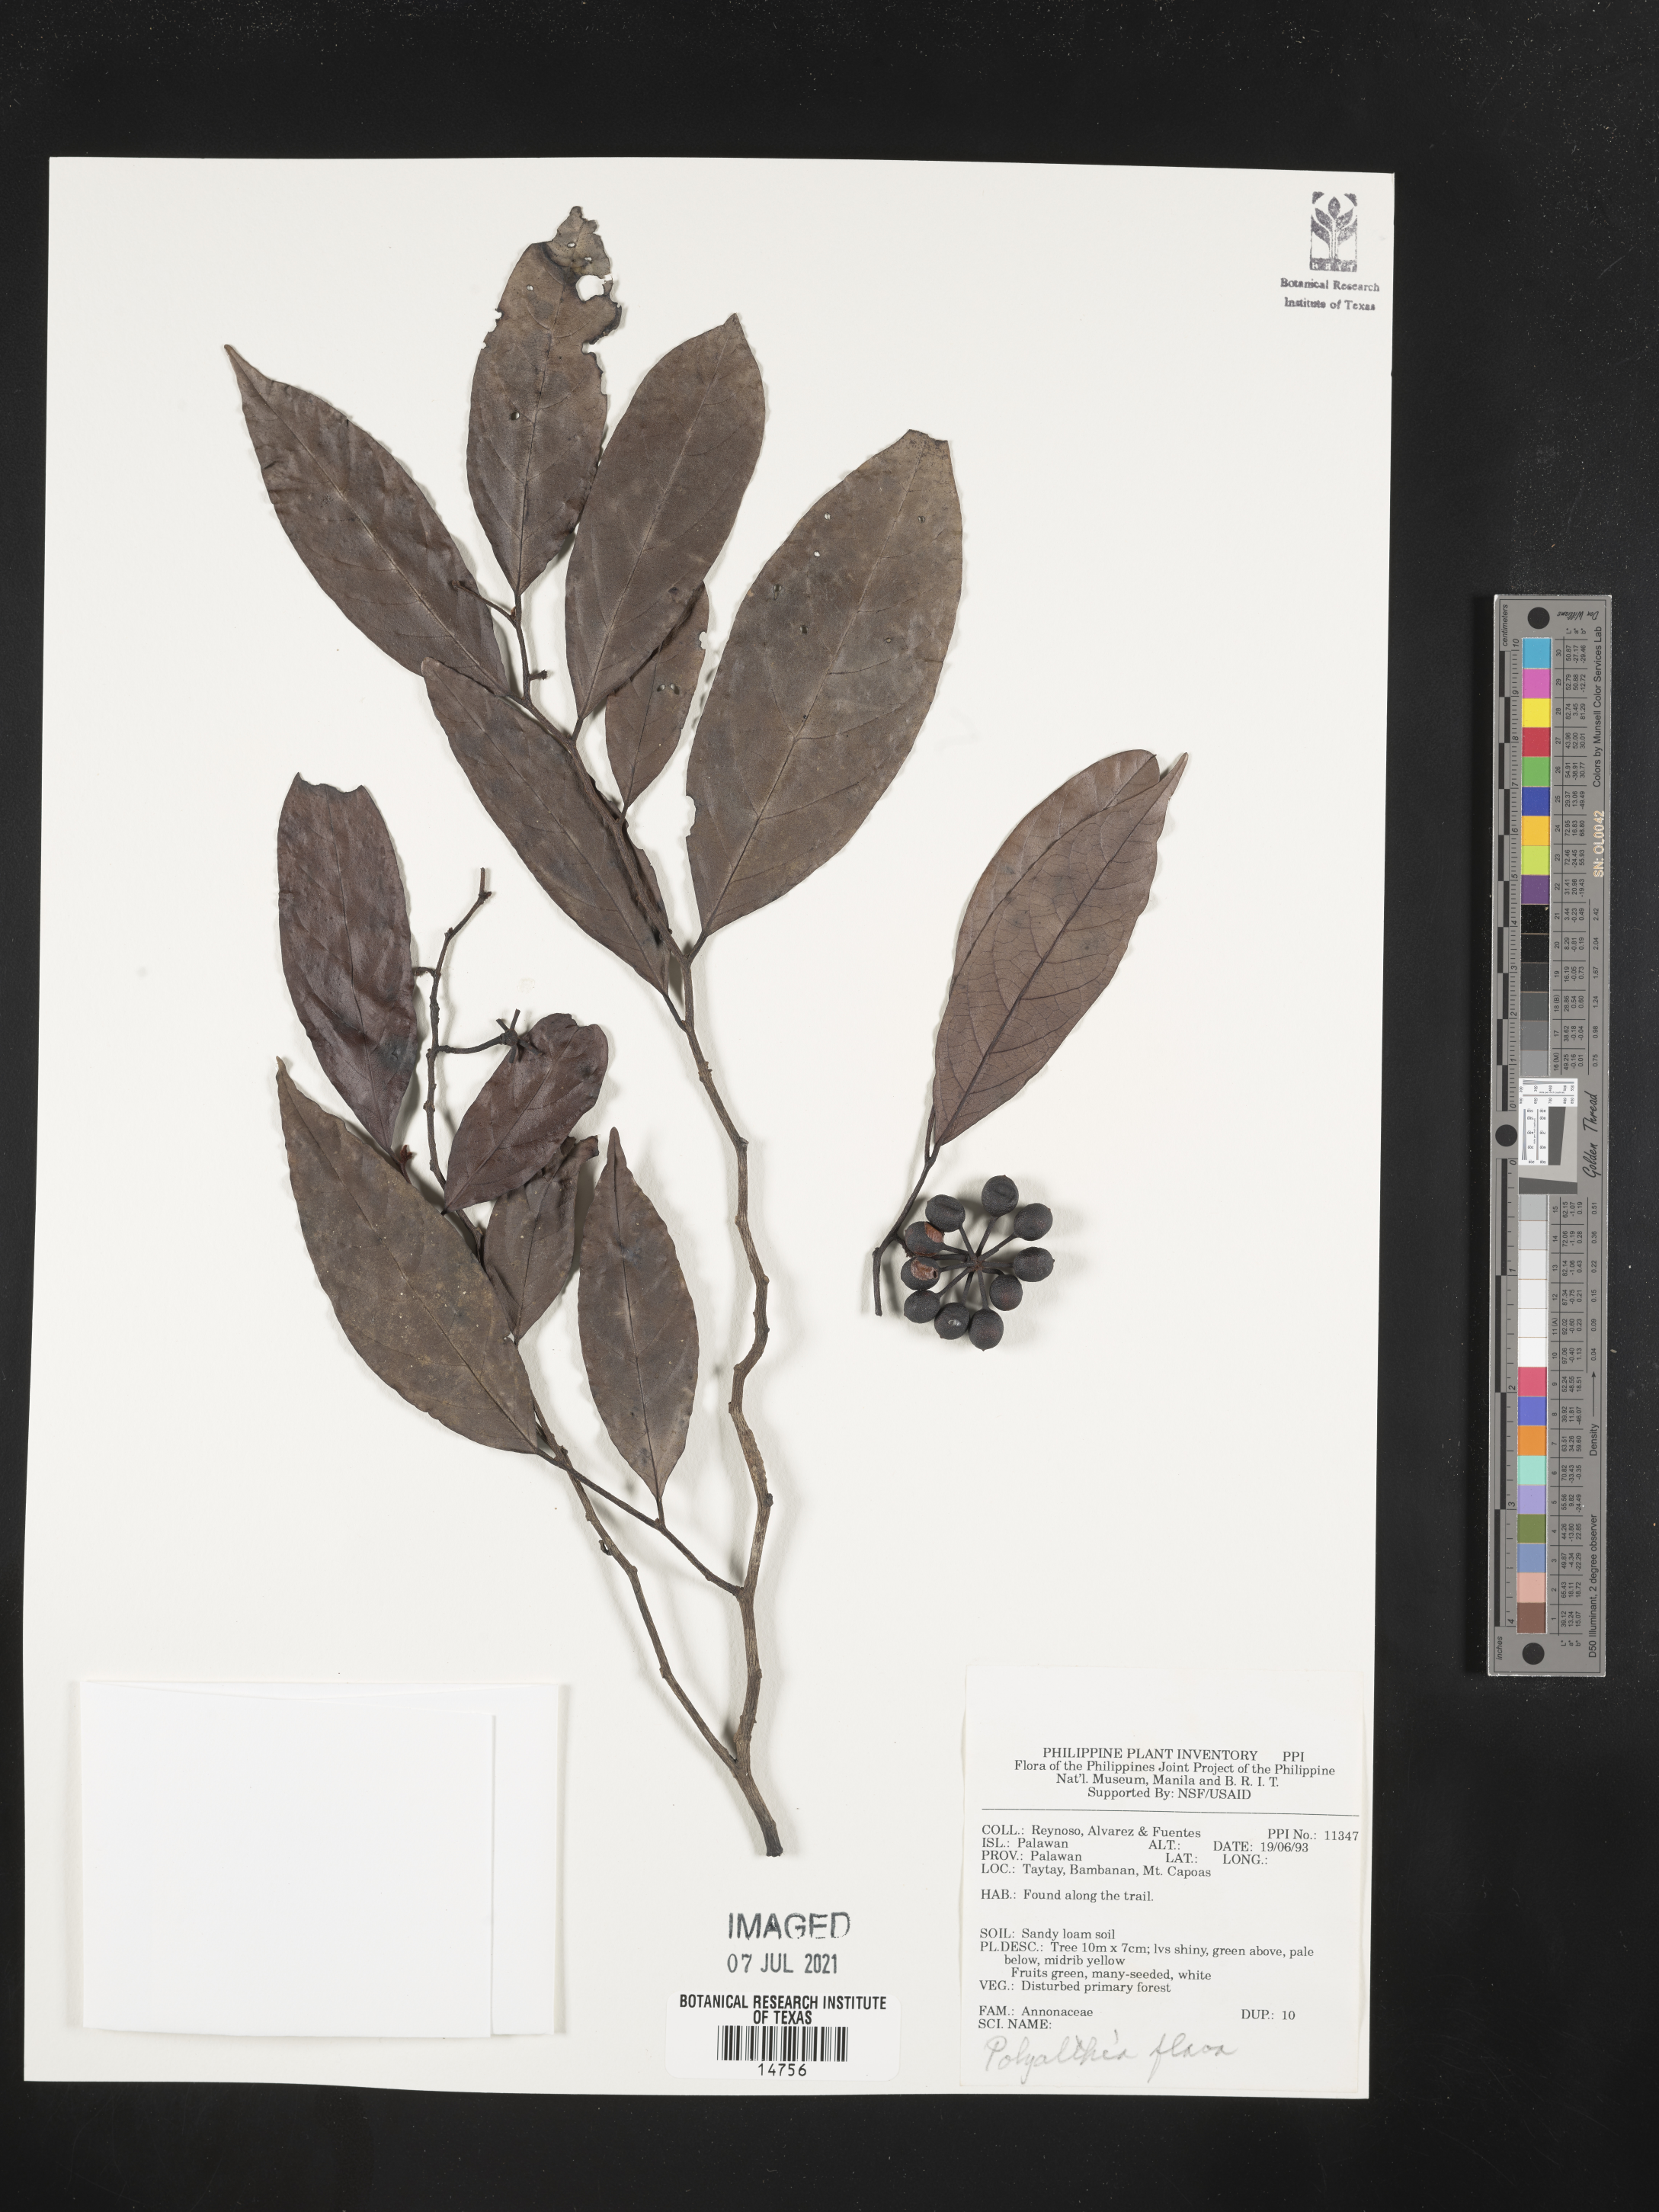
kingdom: Plantae
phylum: Tracheophyta
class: Magnoliopsida
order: Magnoliales
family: Annonaceae
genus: Polyalthia
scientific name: Polyalthia flava
